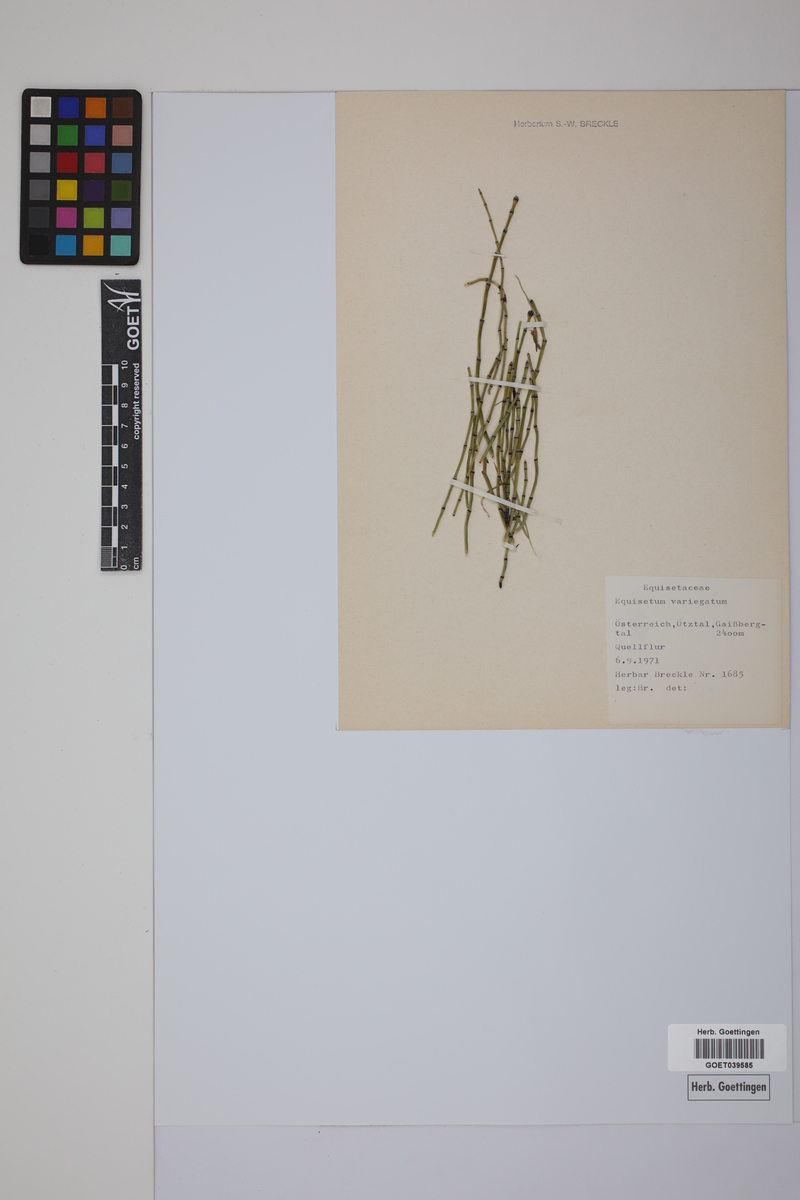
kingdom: Plantae
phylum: Tracheophyta
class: Polypodiopsida
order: Equisetales
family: Equisetaceae
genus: Equisetum
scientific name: Equisetum variegatum
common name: Variegated horsetail
